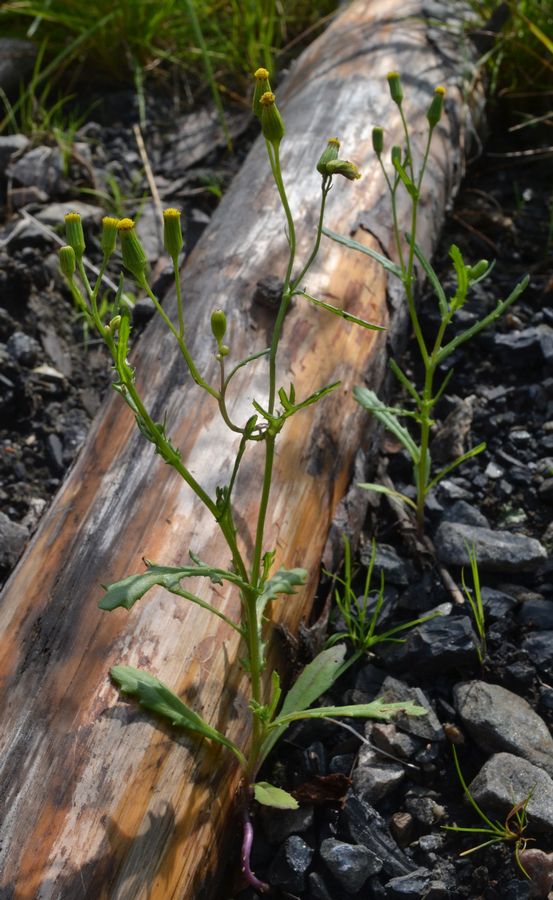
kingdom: Plantae
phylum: Tracheophyta
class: Magnoliopsida
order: Asterales
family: Asteraceae
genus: Senecio
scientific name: Senecio dubitabilis
